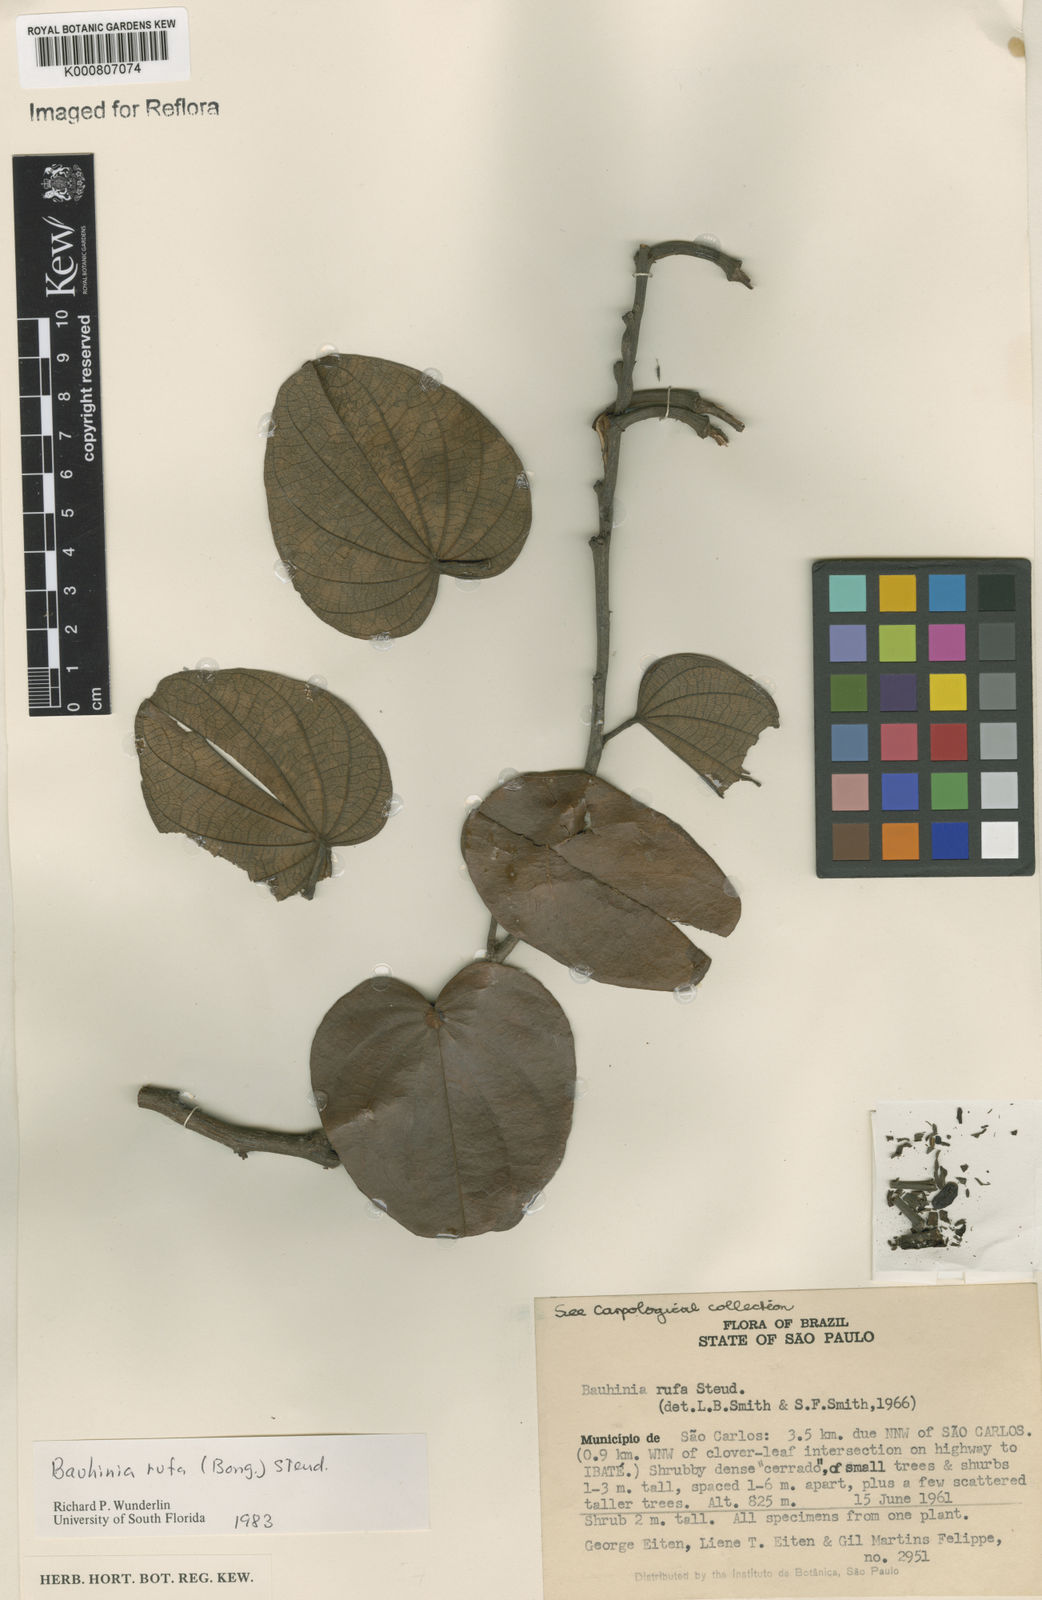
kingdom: Plantae
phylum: Tracheophyta
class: Magnoliopsida
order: Fabales
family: Fabaceae
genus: Bauhinia
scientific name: Bauhinia rufa
